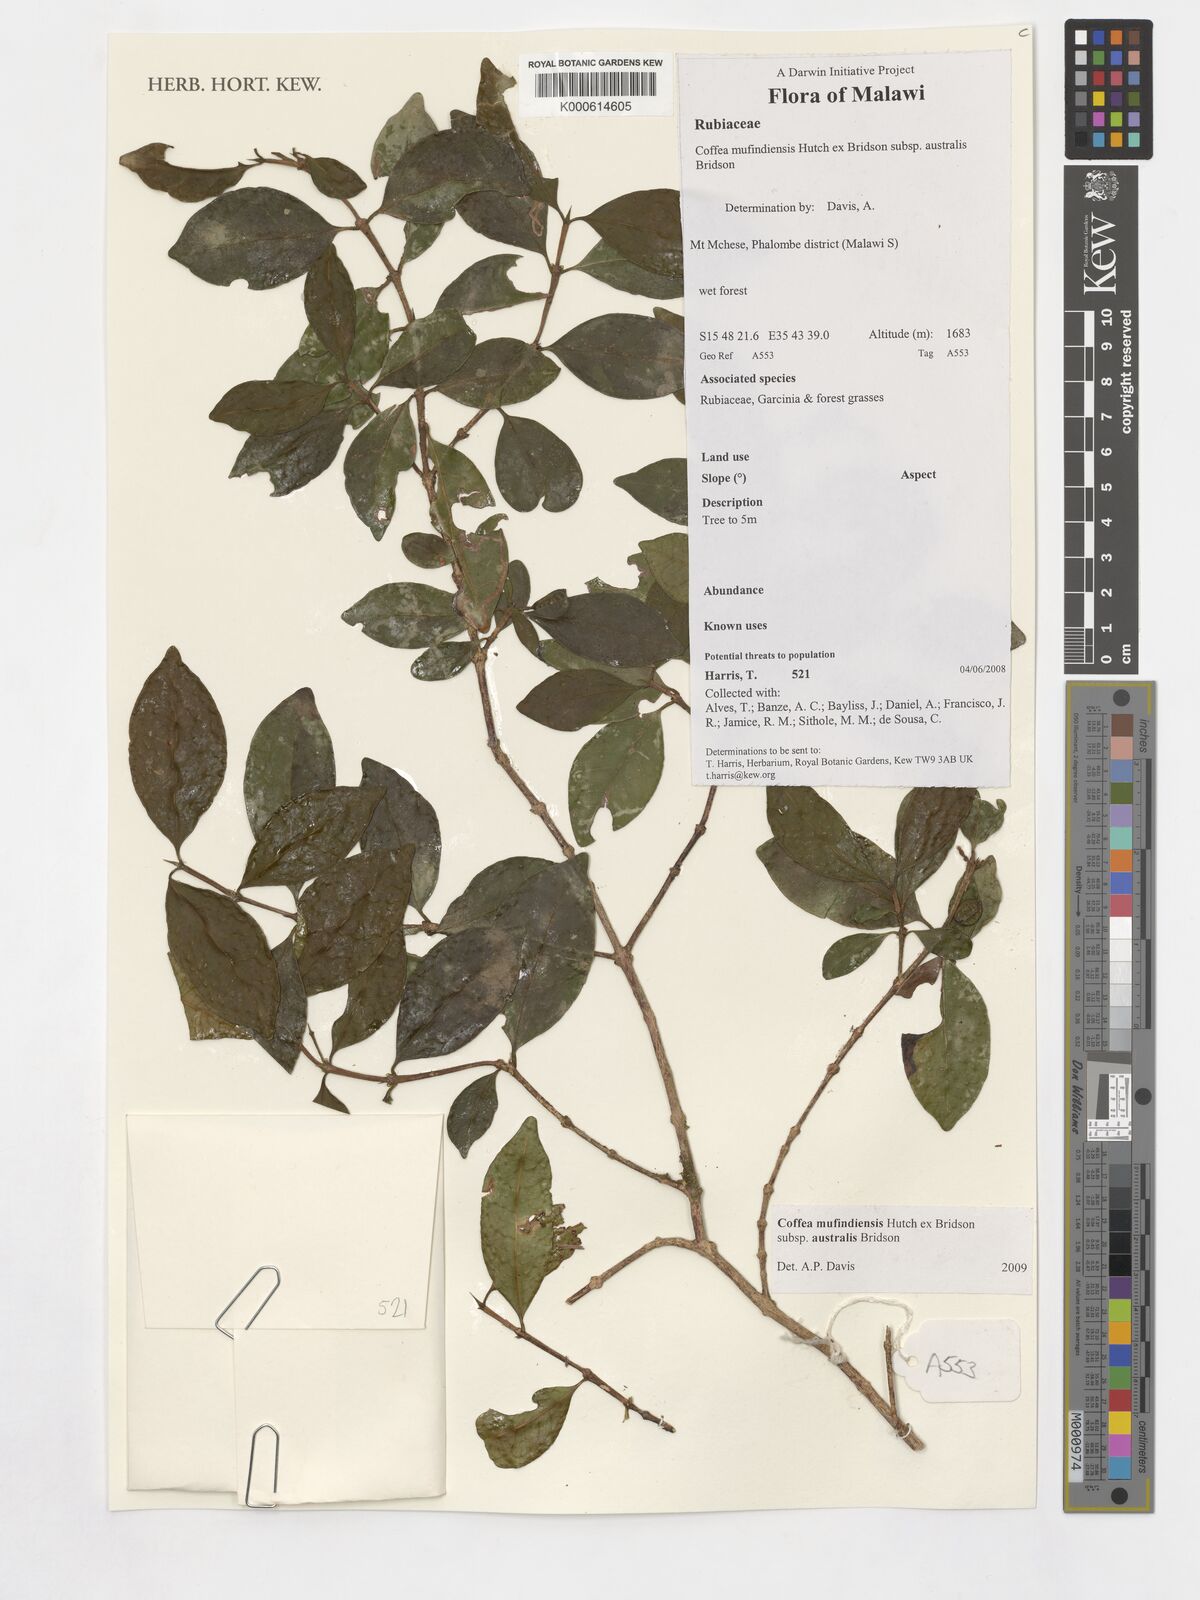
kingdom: Plantae
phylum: Tracheophyta
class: Magnoliopsida
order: Gentianales
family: Rubiaceae
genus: Coffea
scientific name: Coffea mufindiensis
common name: Wild coffee
